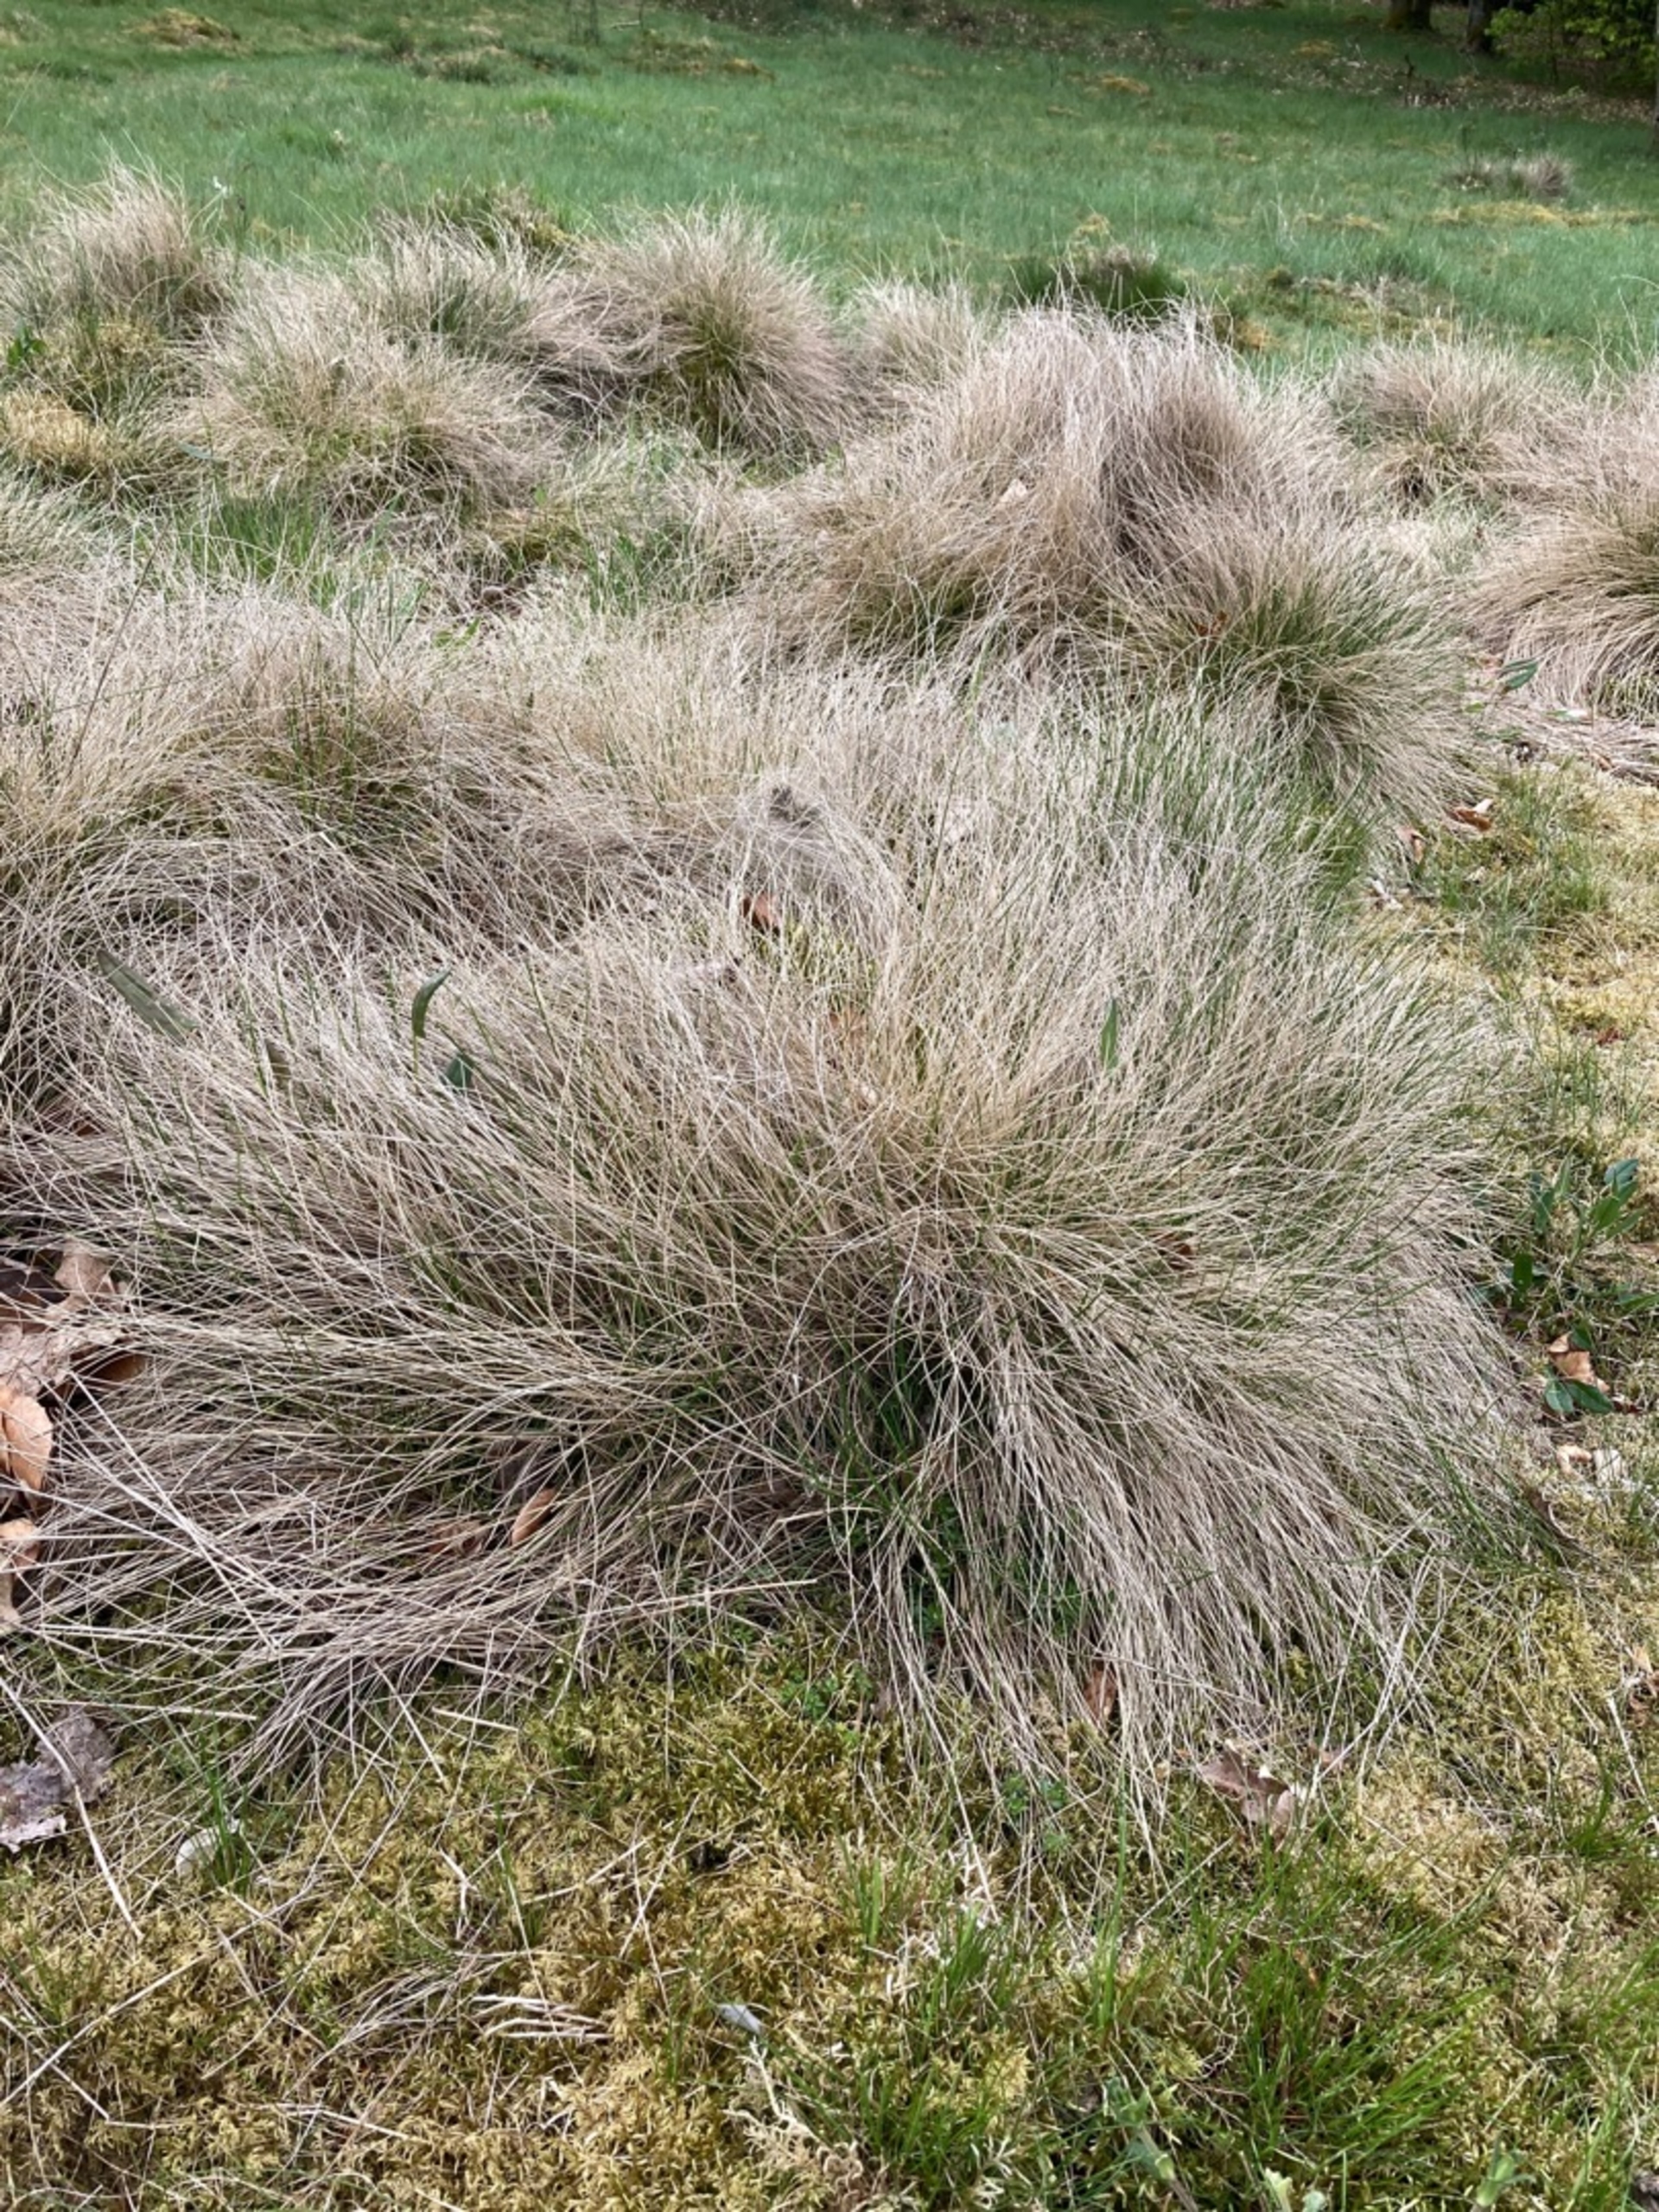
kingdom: Plantae
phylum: Tracheophyta
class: Liliopsida
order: Poales
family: Poaceae
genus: Nardus
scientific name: Nardus stricta
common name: Katteskæg
